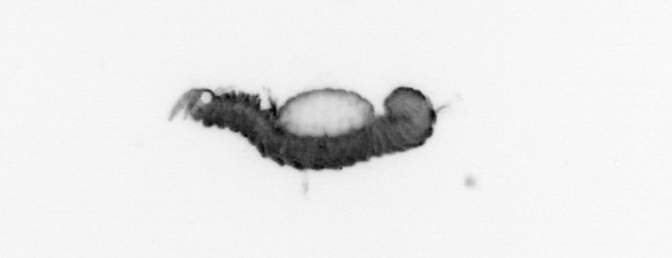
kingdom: Animalia
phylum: Annelida
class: Polychaeta
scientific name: Polychaeta
